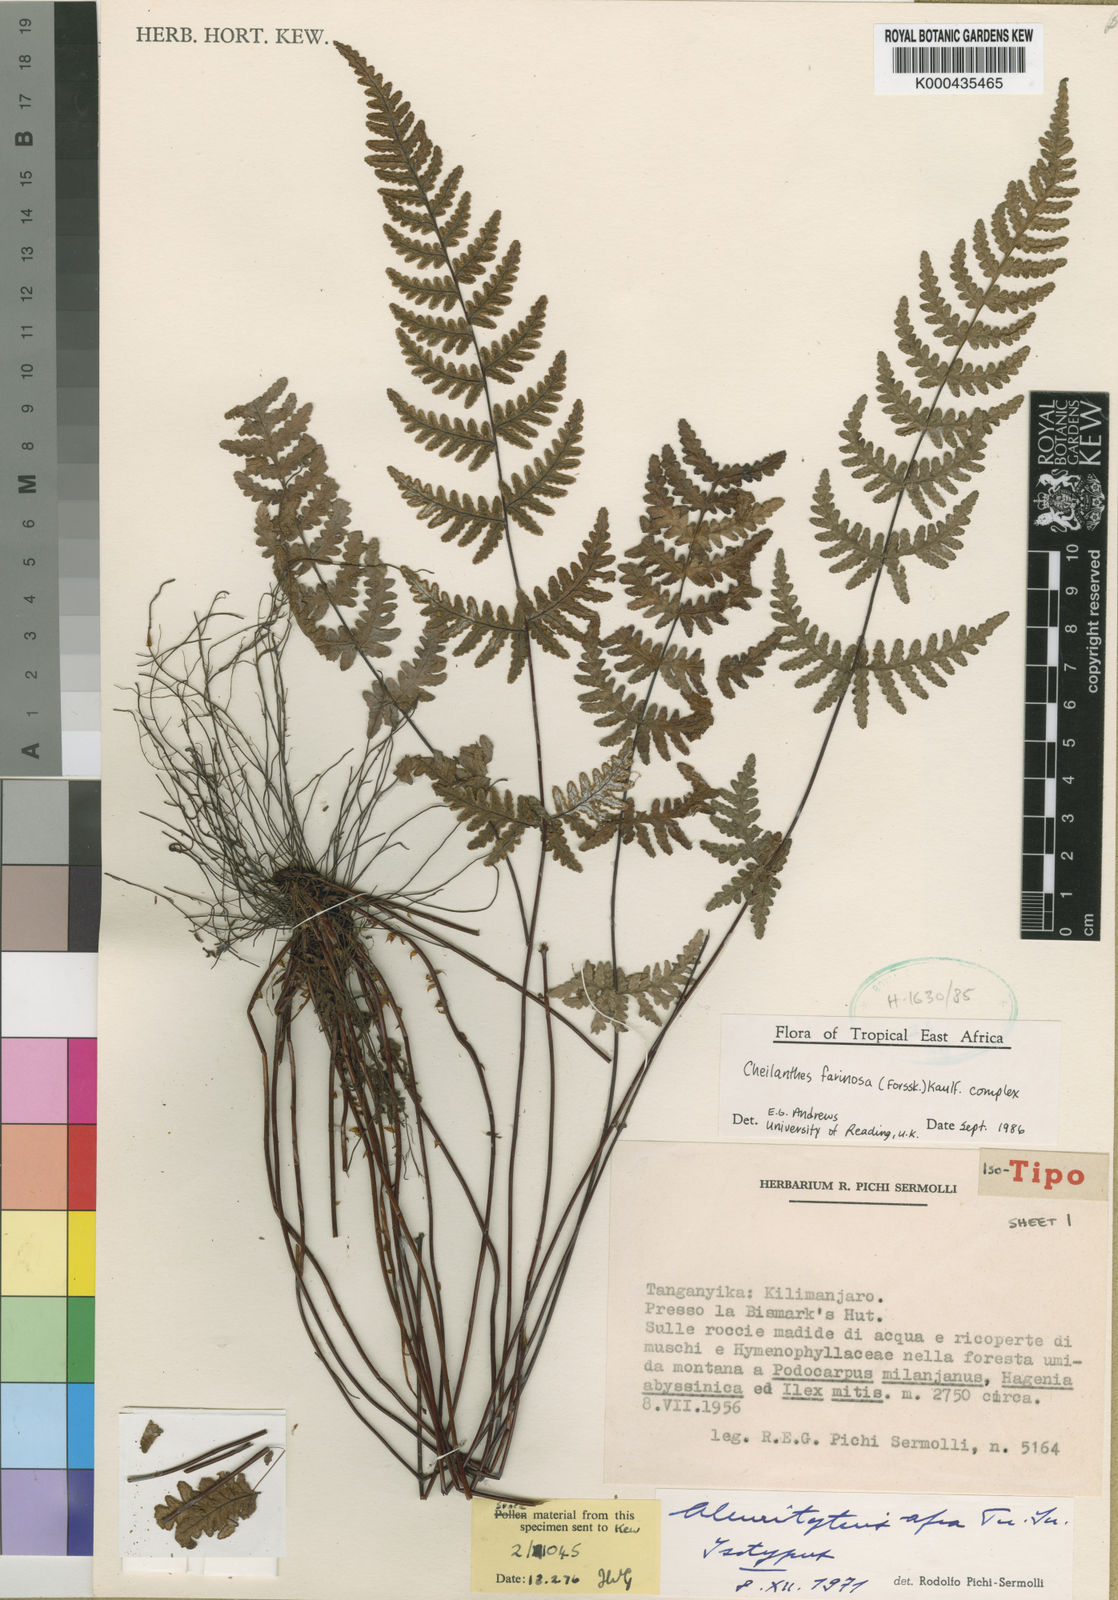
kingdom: Plantae
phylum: Tracheophyta
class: Polypodiopsida
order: Polypodiales
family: Pteridaceae
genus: Aleuritopteris
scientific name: Aleuritopteris farinosa
